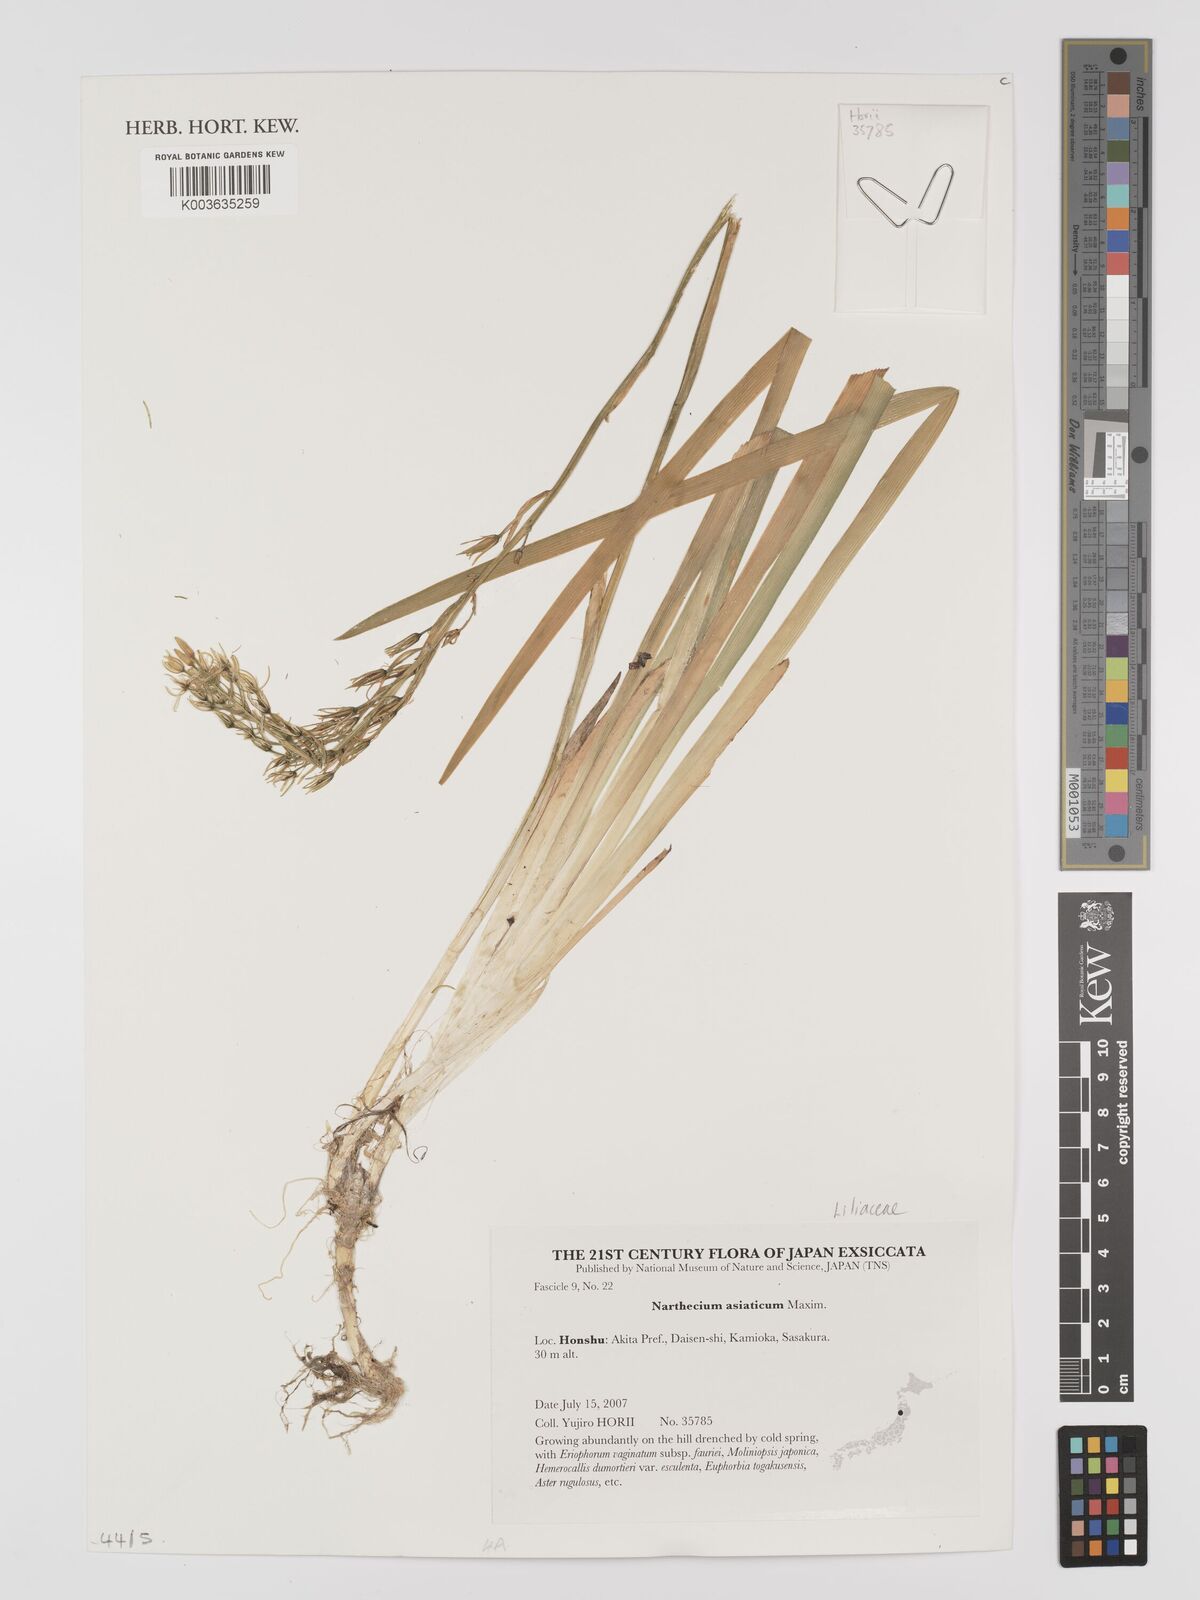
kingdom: Plantae
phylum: Tracheophyta
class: Liliopsida
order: Dioscoreales
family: Nartheciaceae
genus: Narthecium
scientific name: Narthecium asiaticum
